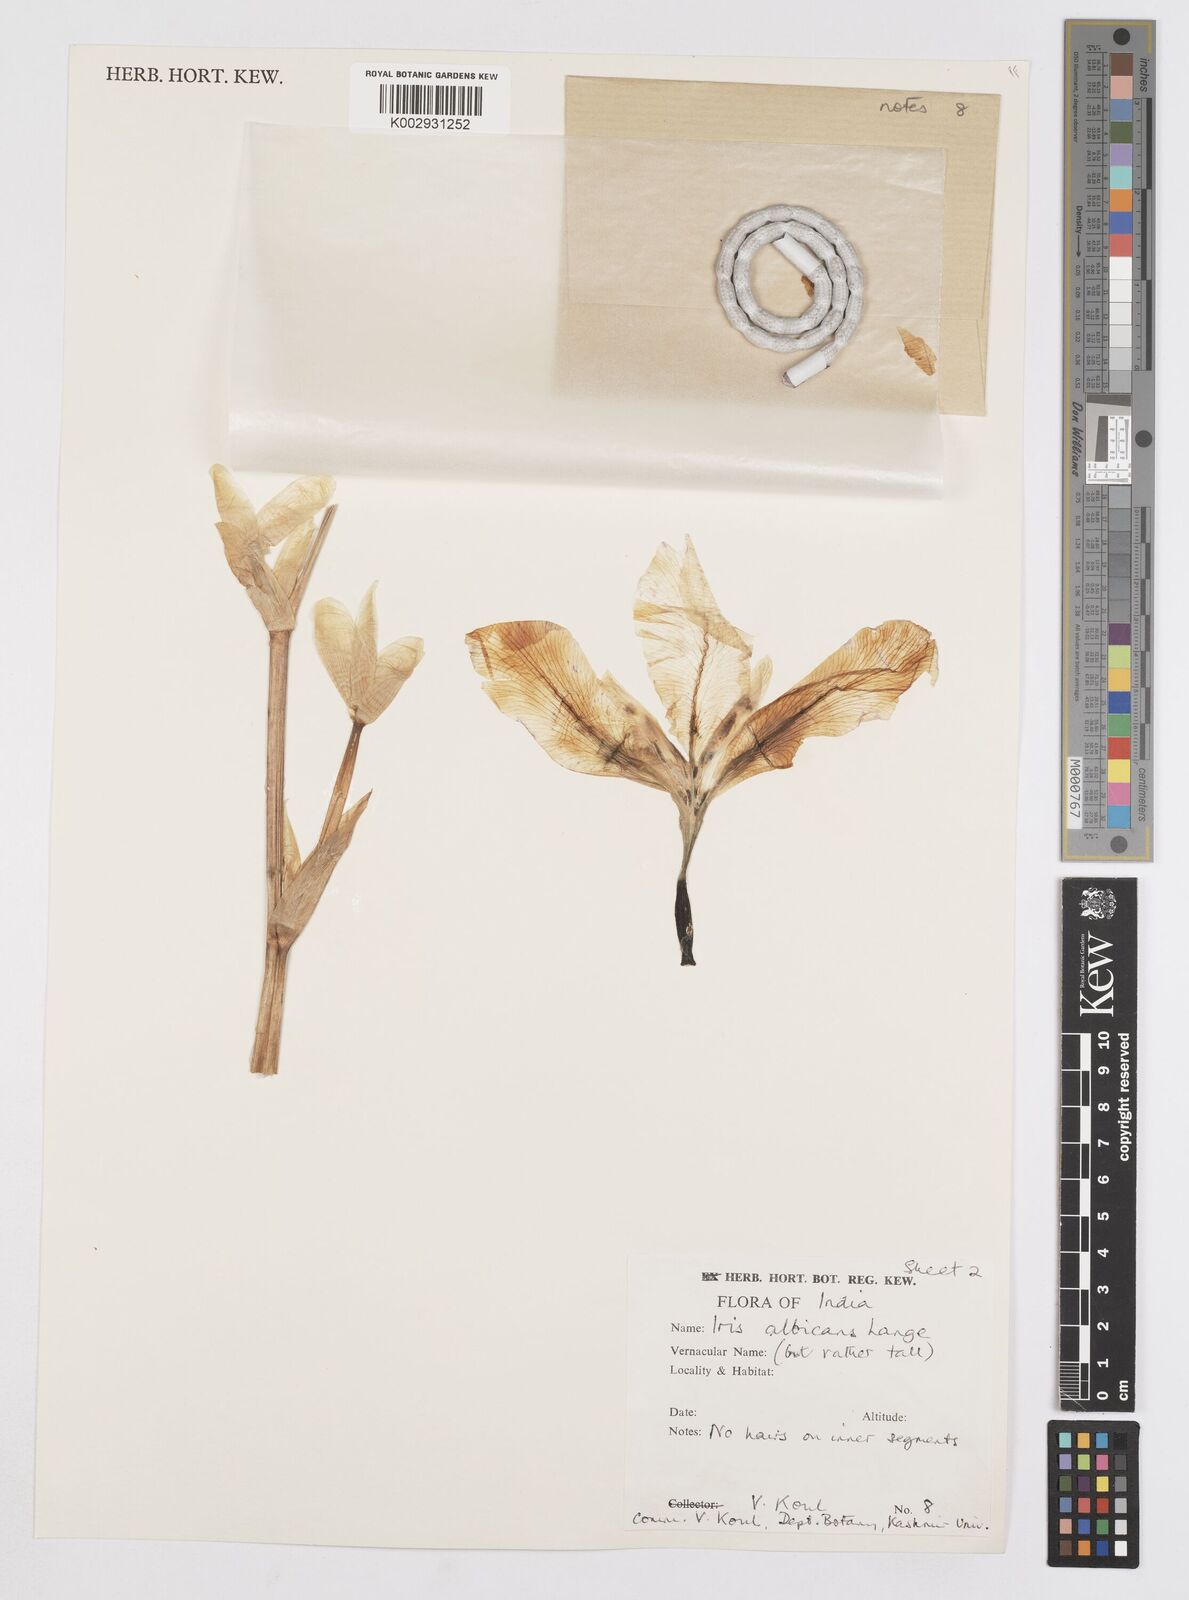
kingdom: Plantae
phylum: Tracheophyta
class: Liliopsida
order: Asparagales
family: Iridaceae
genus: Iris
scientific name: Iris florentina
